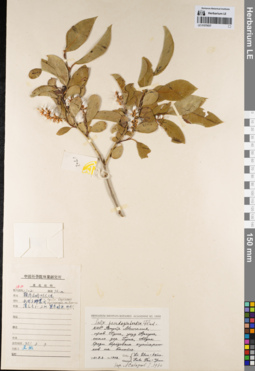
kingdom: Plantae
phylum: Tracheophyta
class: Magnoliopsida
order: Malpighiales
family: Salicaceae
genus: Salix
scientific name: Salix pseudopentandra
